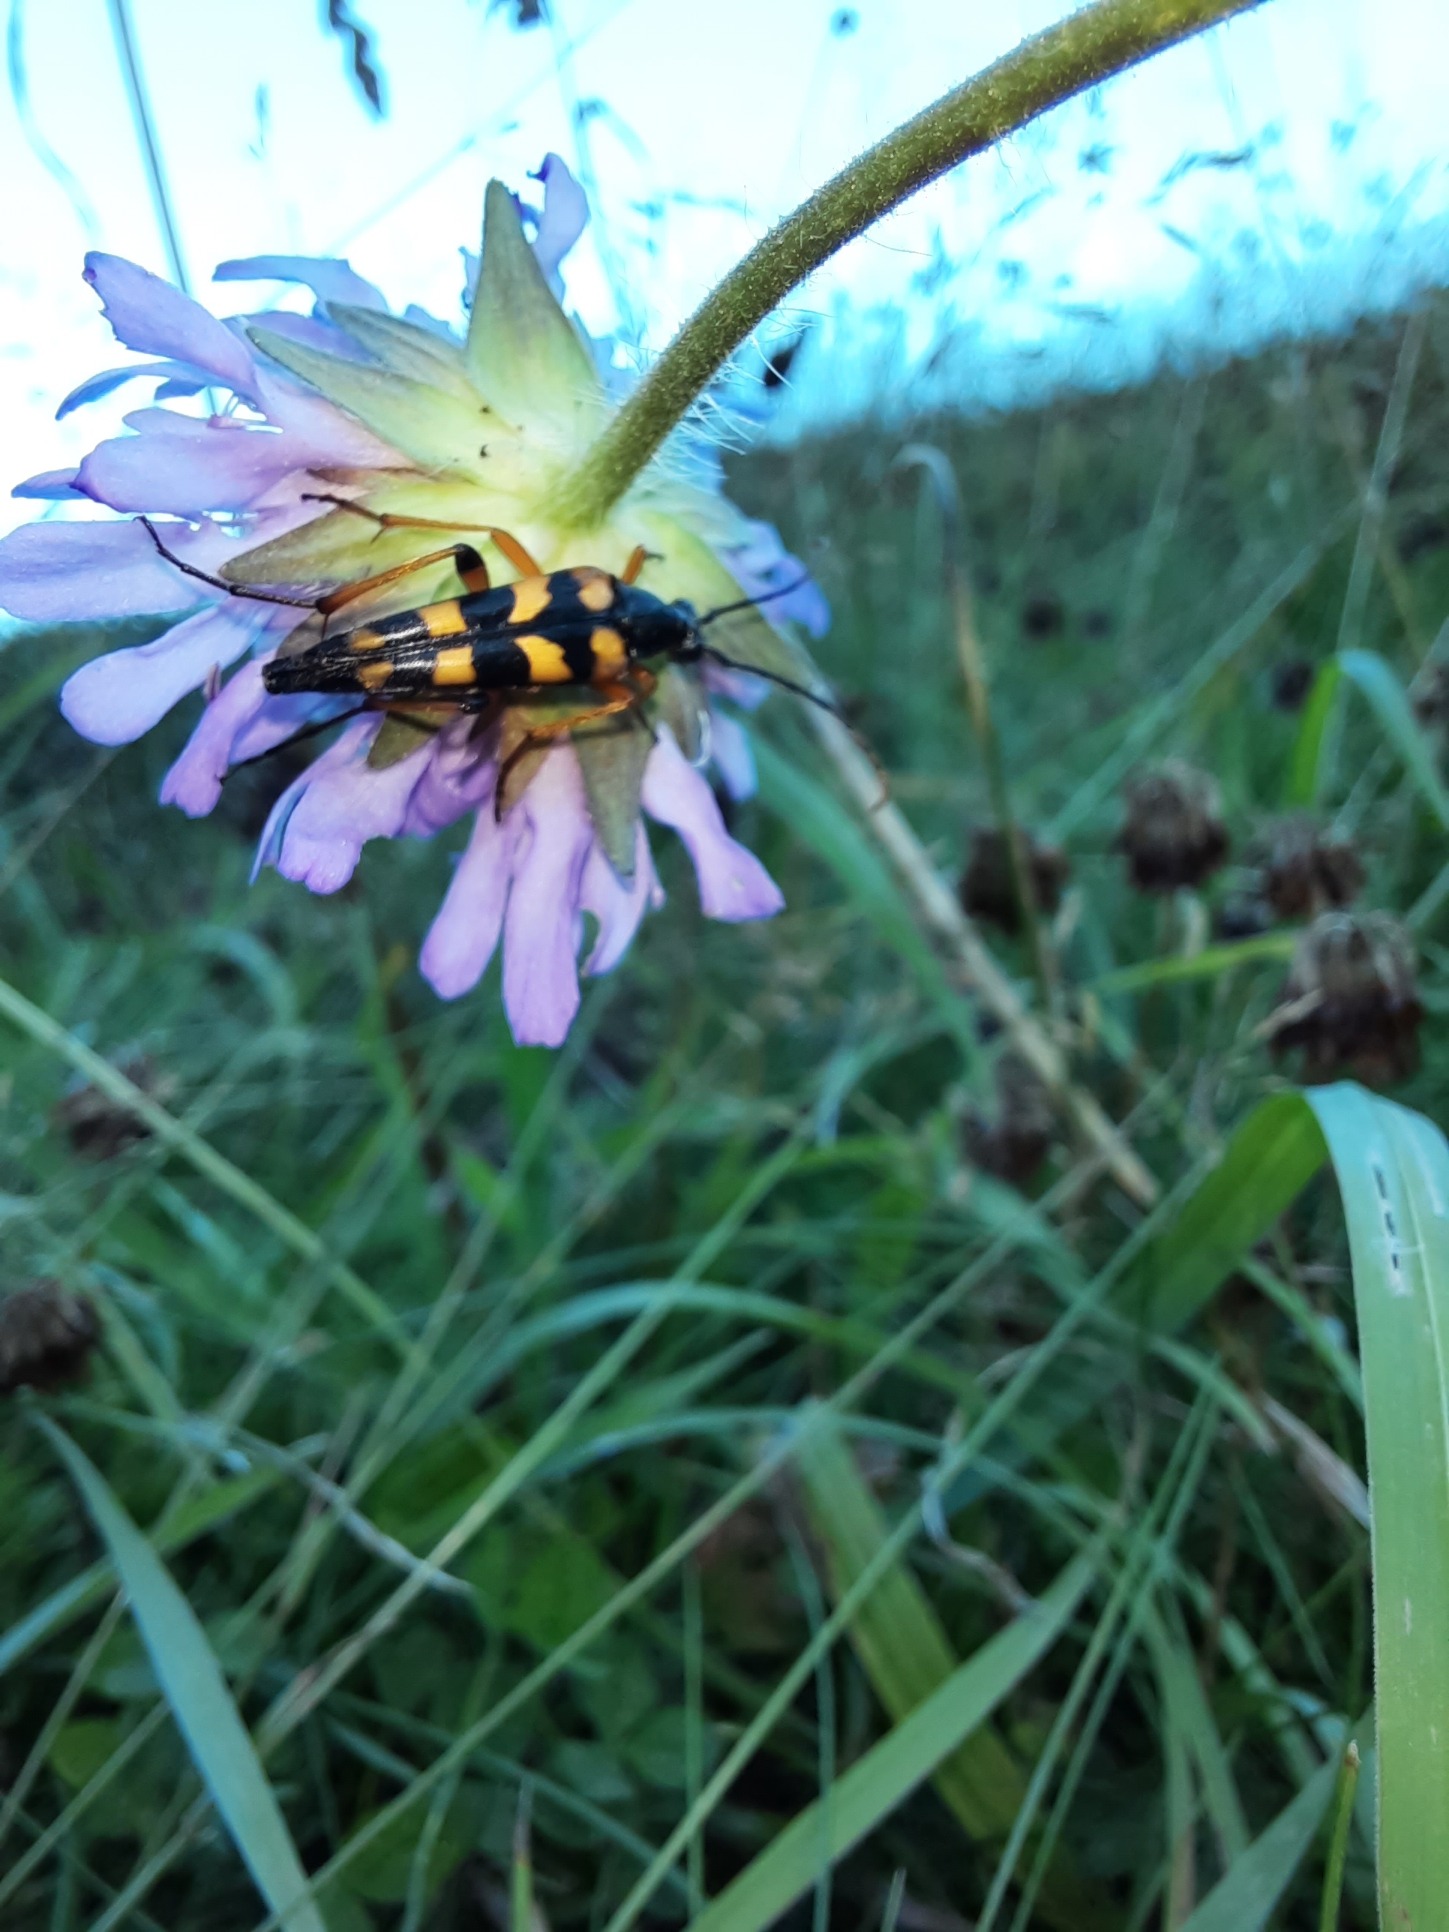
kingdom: Animalia
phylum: Arthropoda
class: Insecta
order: Coleoptera
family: Cerambycidae
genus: Strangalia
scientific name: Strangalia attenuata
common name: Smal blomsterbuk
